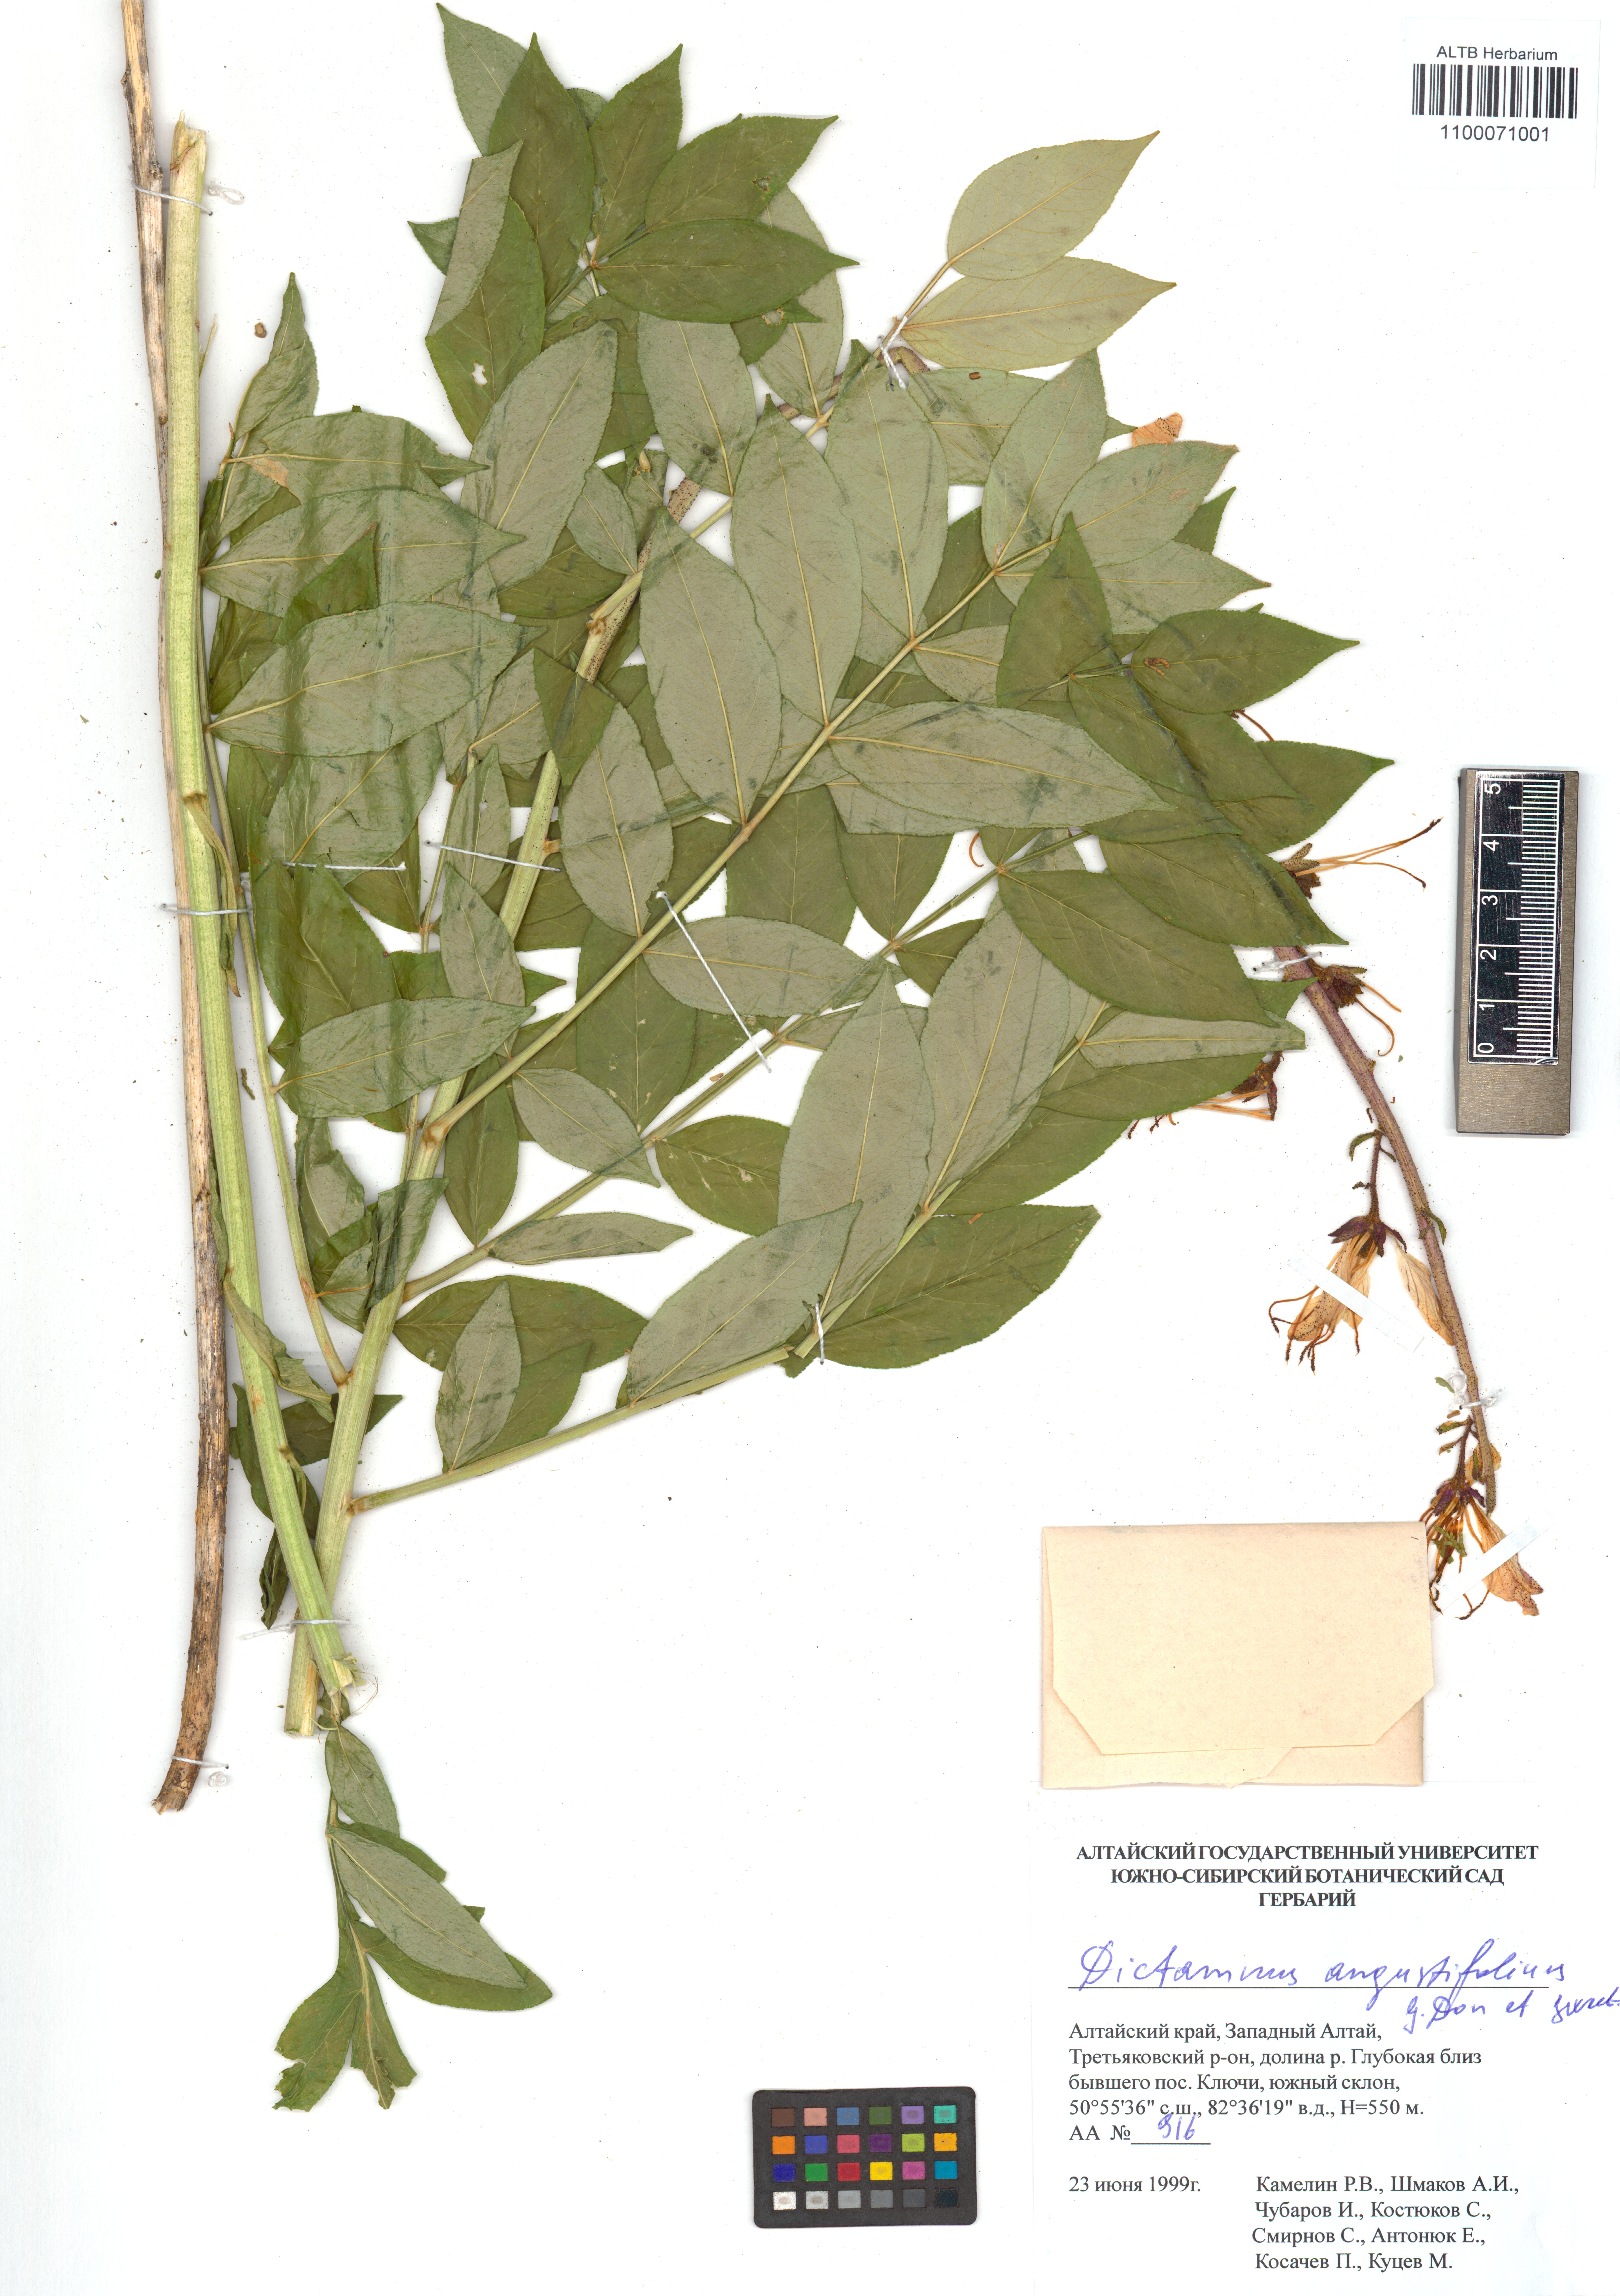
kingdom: Plantae
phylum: Tracheophyta
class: Magnoliopsida
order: Sapindales
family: Rutaceae
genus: Dictamnus
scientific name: Dictamnus albus
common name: Gasplant
